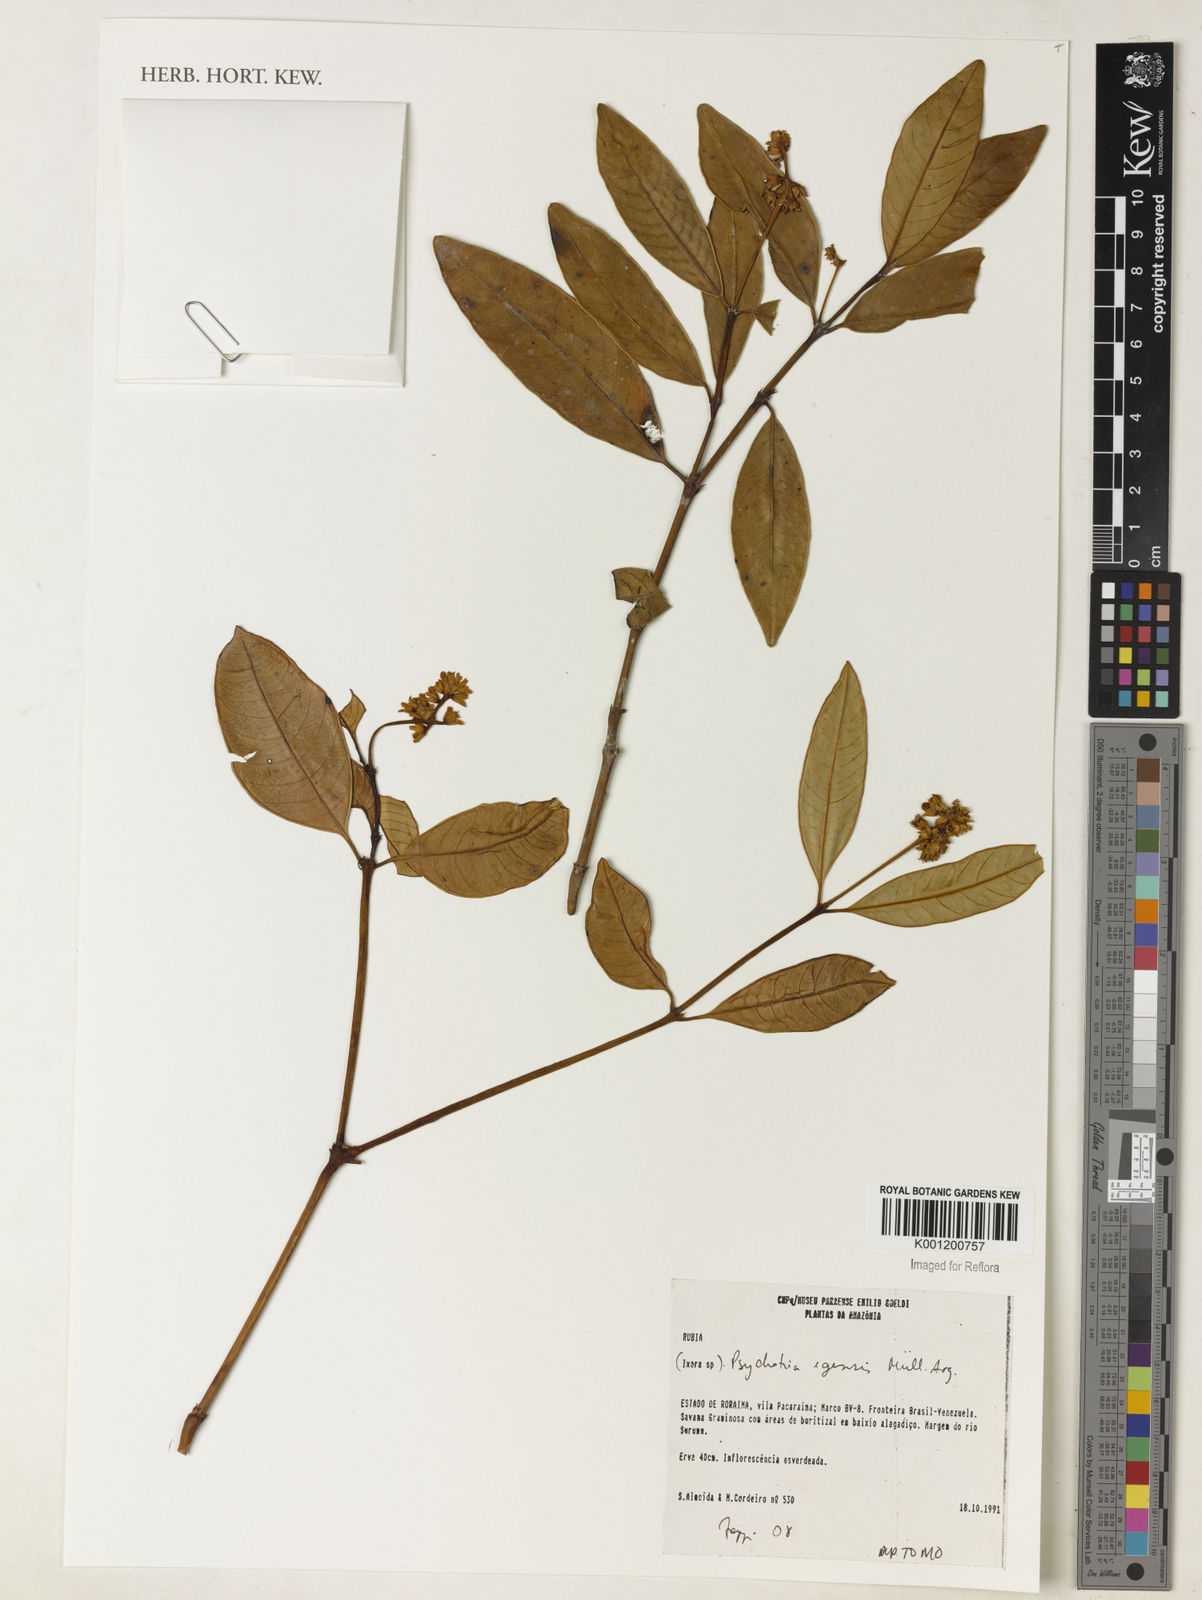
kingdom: Plantae
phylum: Tracheophyta
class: Magnoliopsida
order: Gentianales
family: Rubiaceae
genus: Psychotria
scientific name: Psychotria
